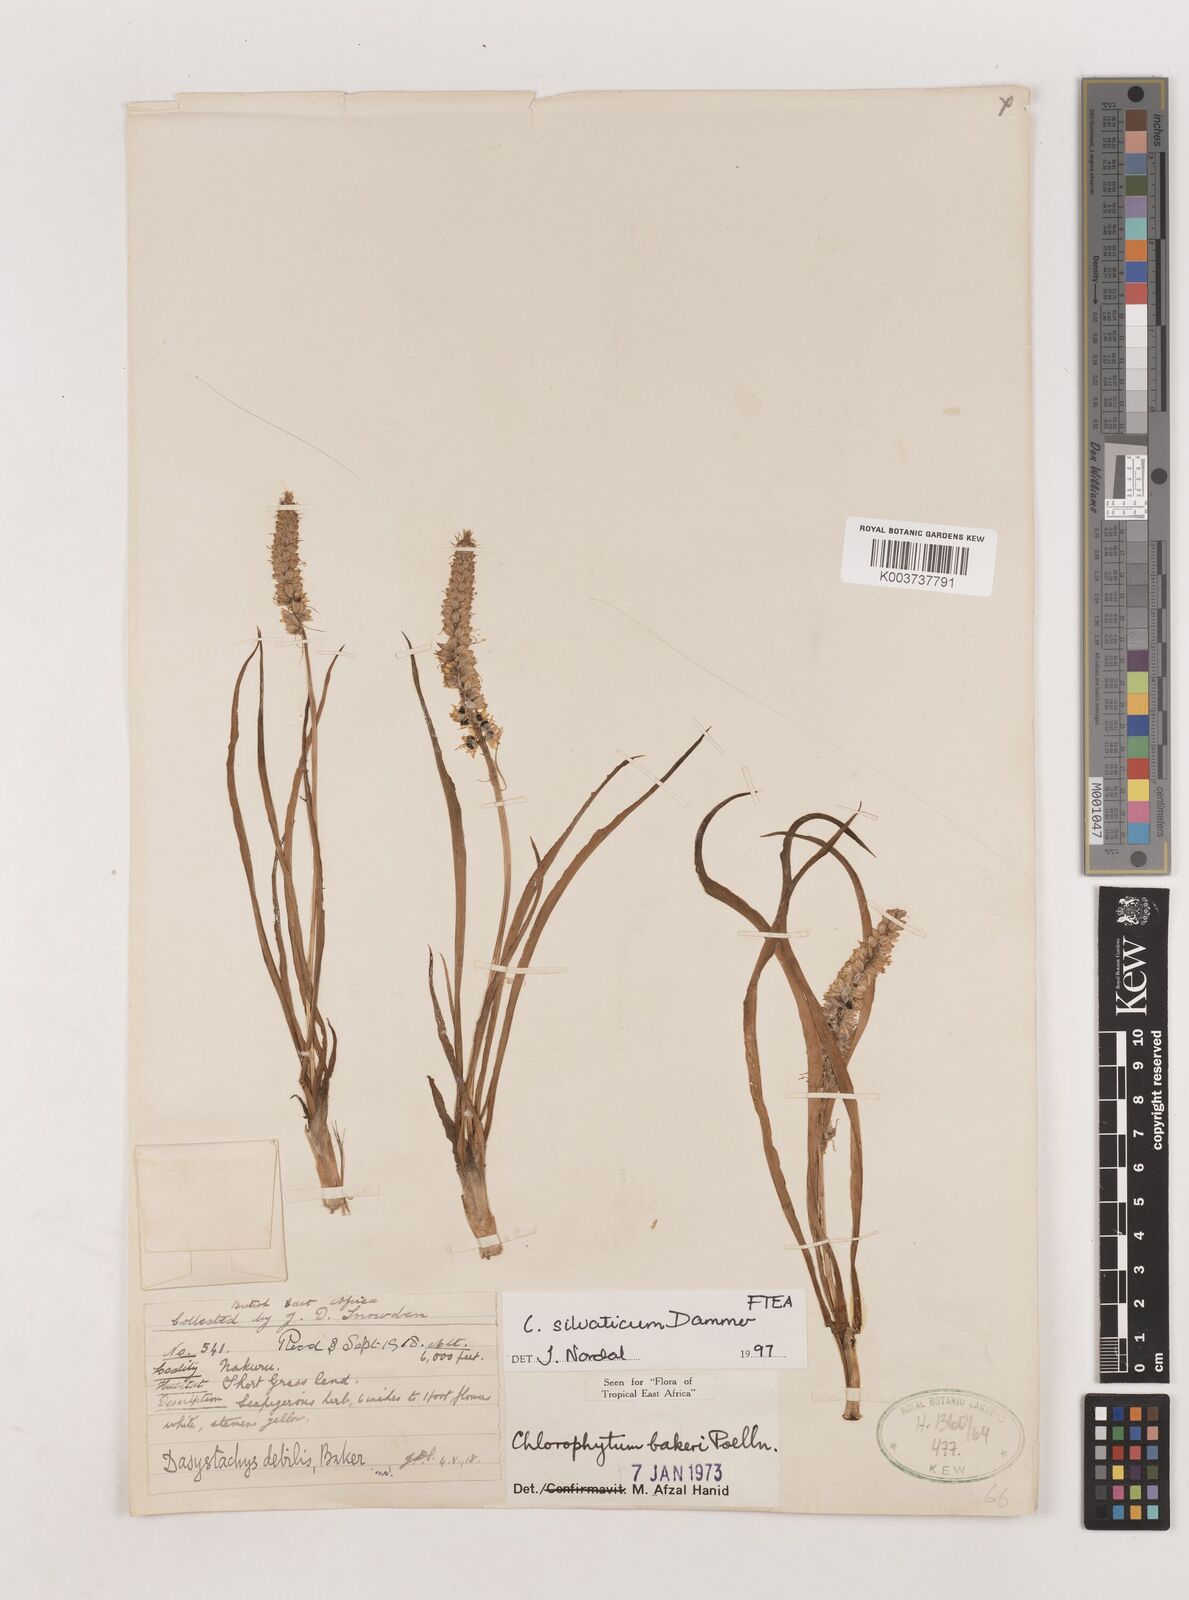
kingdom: Plantae
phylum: Tracheophyta
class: Liliopsida
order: Asparagales
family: Asparagaceae
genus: Chlorophytum
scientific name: Chlorophytum africanum
